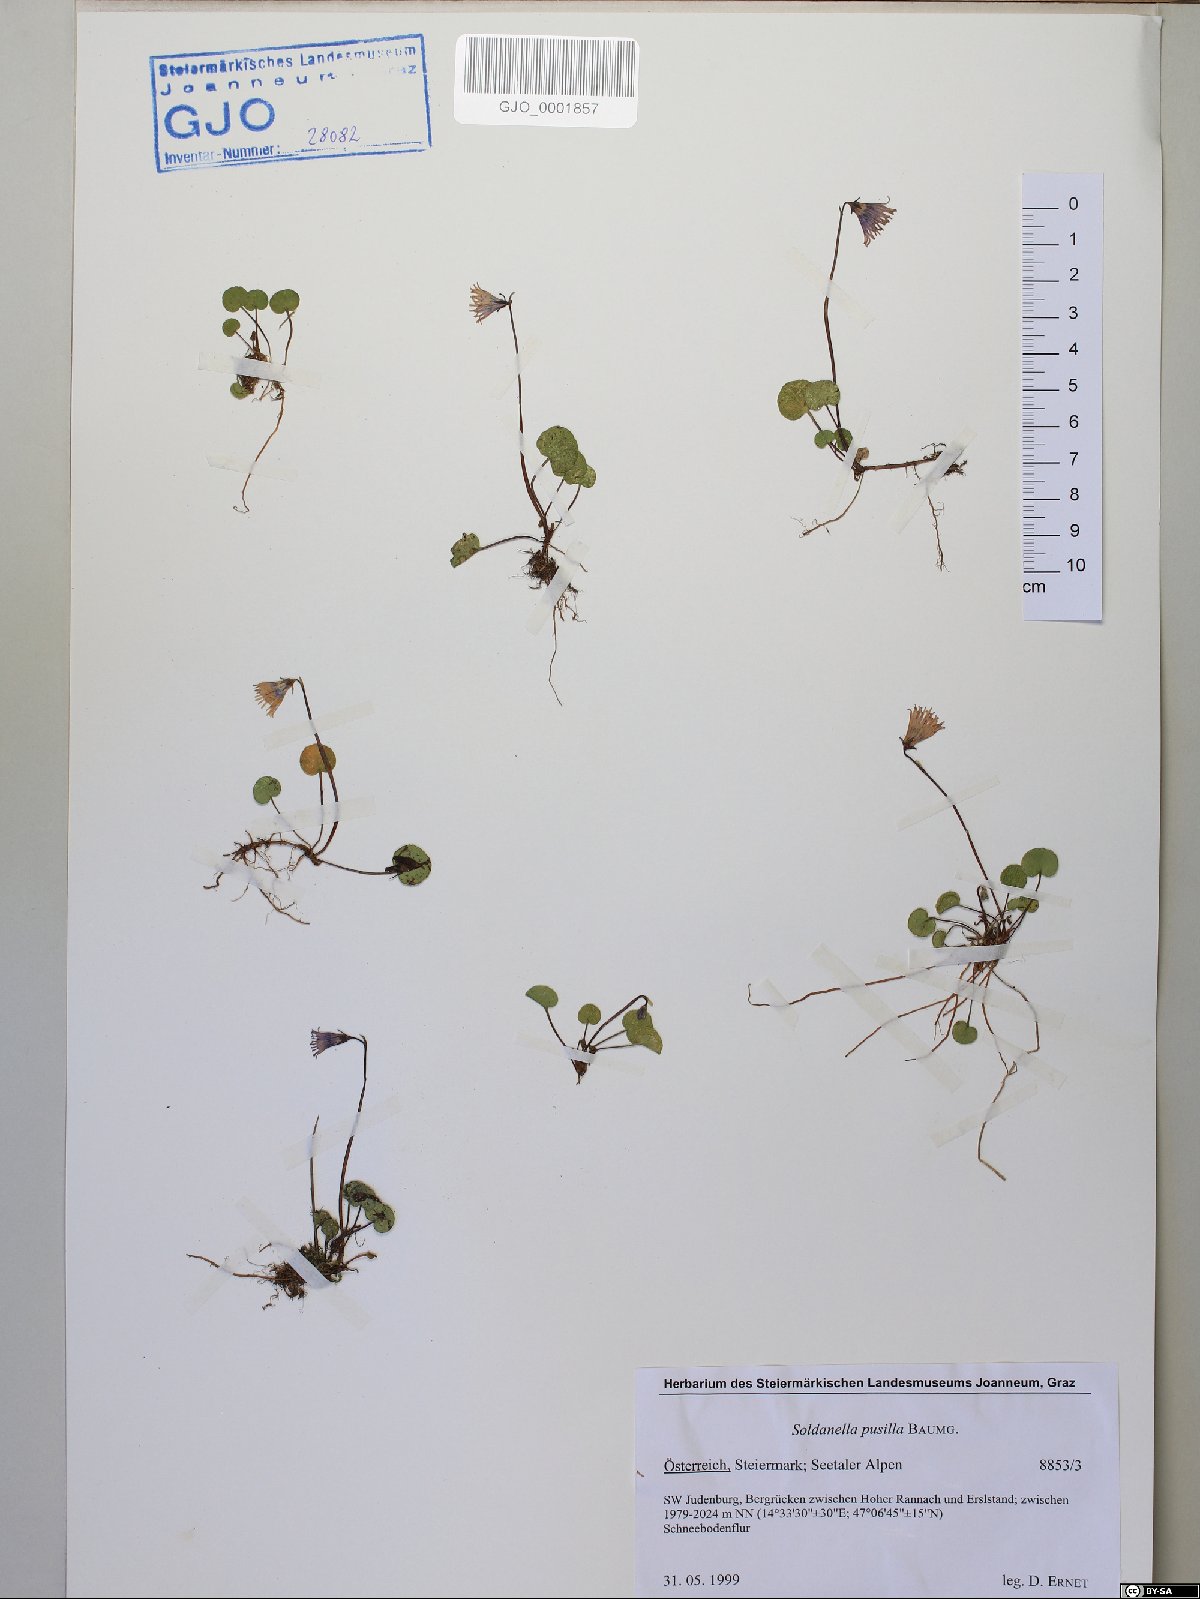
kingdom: Plantae
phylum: Tracheophyta
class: Magnoliopsida
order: Ericales
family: Primulaceae
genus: Soldanella
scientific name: Soldanella pusilla
